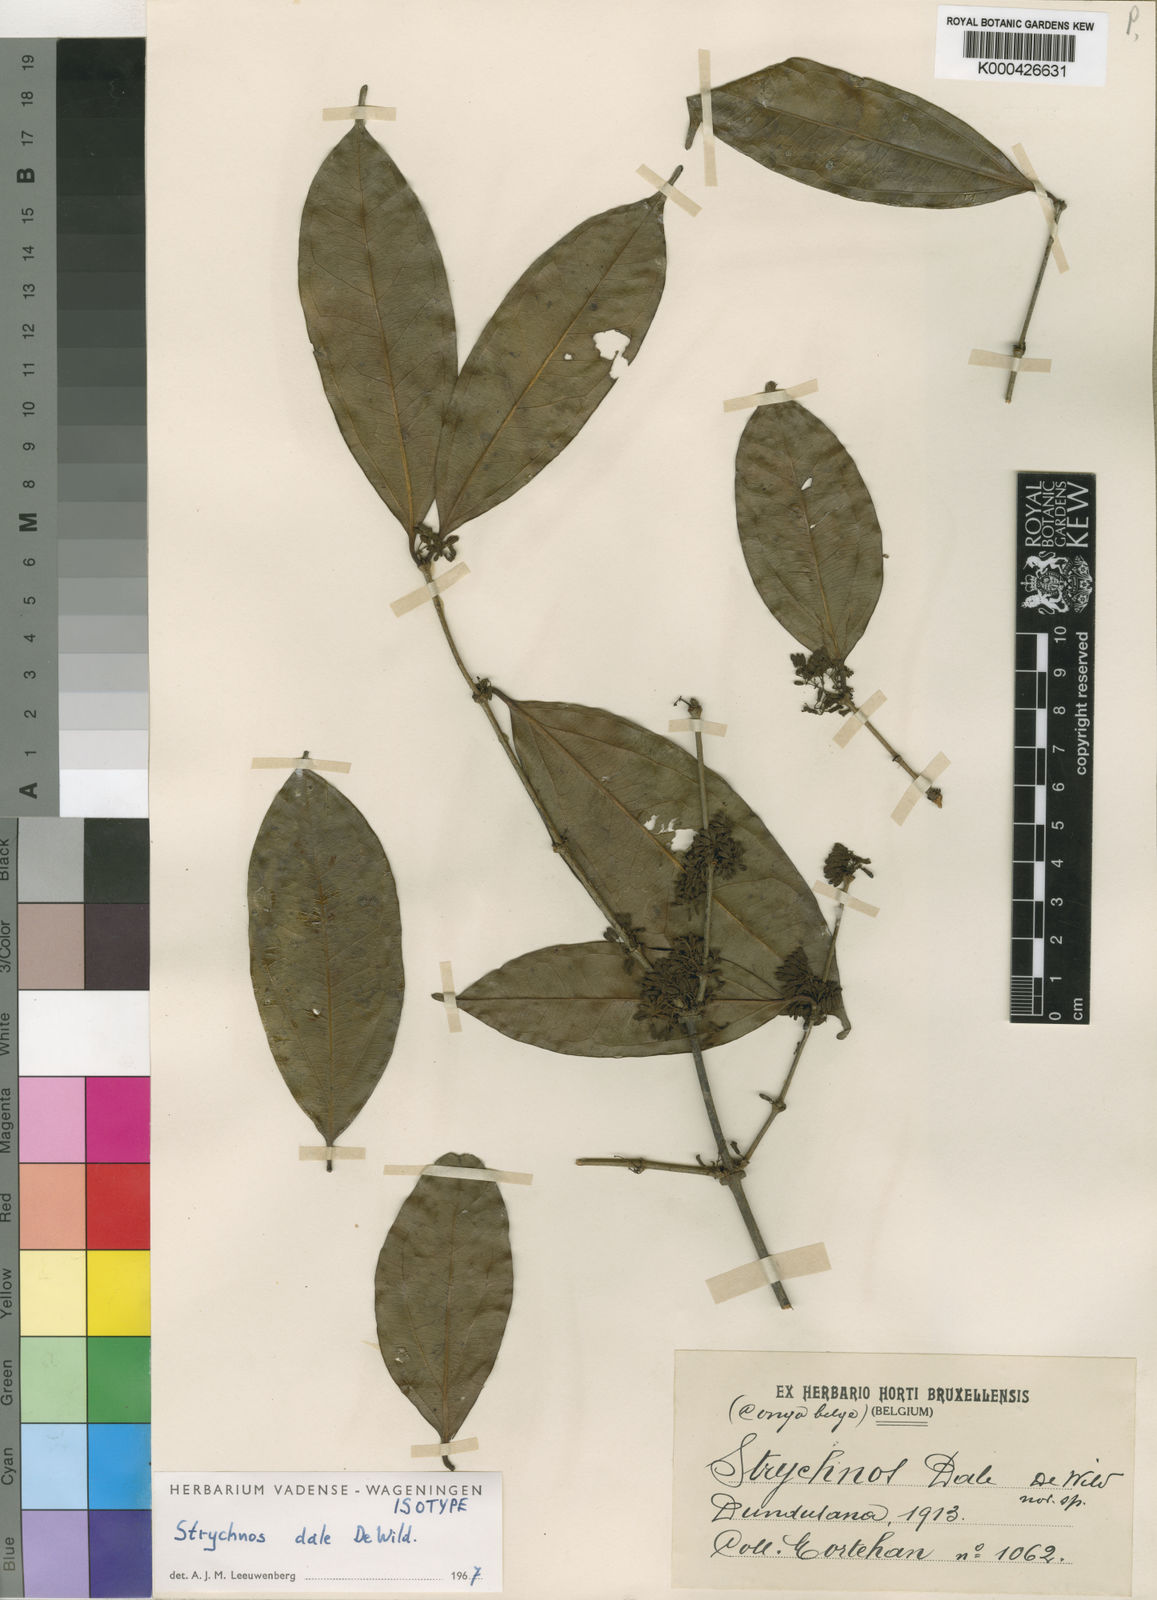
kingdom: Plantae
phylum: Tracheophyta
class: Magnoliopsida
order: Gentianales
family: Loganiaceae
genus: Strychnos
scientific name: Strychnos dale
